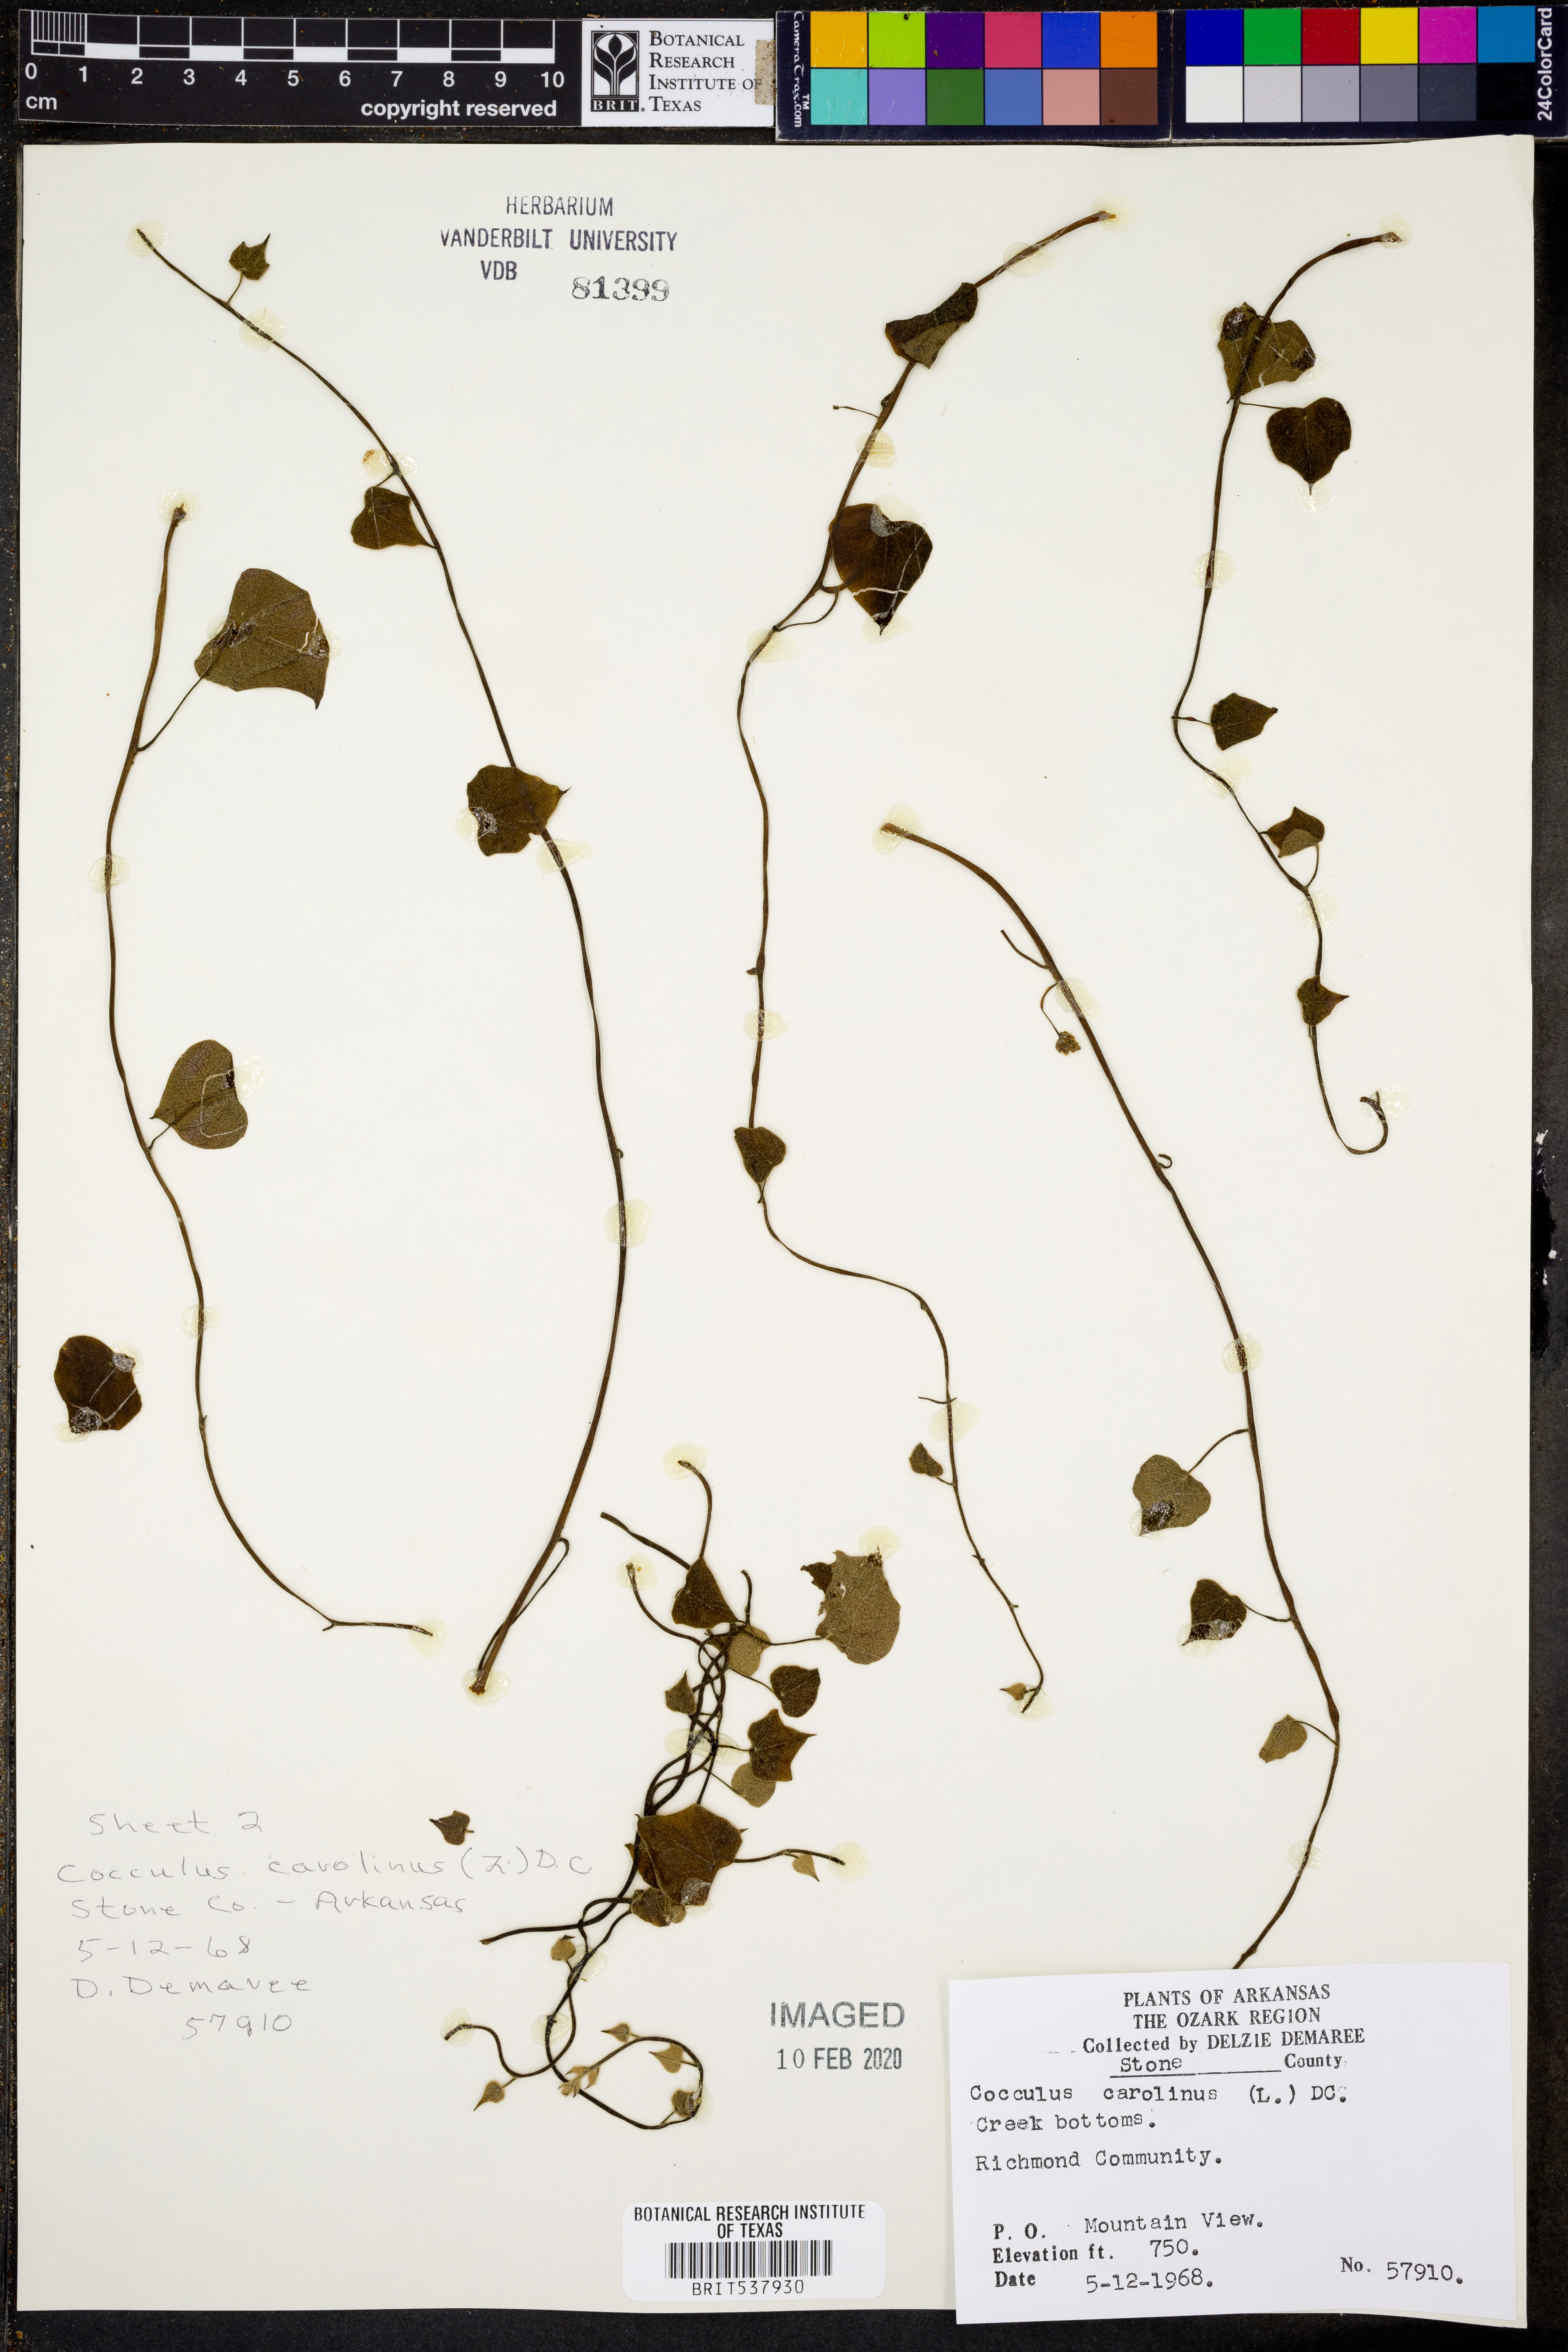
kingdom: Plantae
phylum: Tracheophyta
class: Magnoliopsida
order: Ranunculales
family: Menispermaceae
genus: Cocculus
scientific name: Cocculus carolinus
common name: Carolina moonseed
